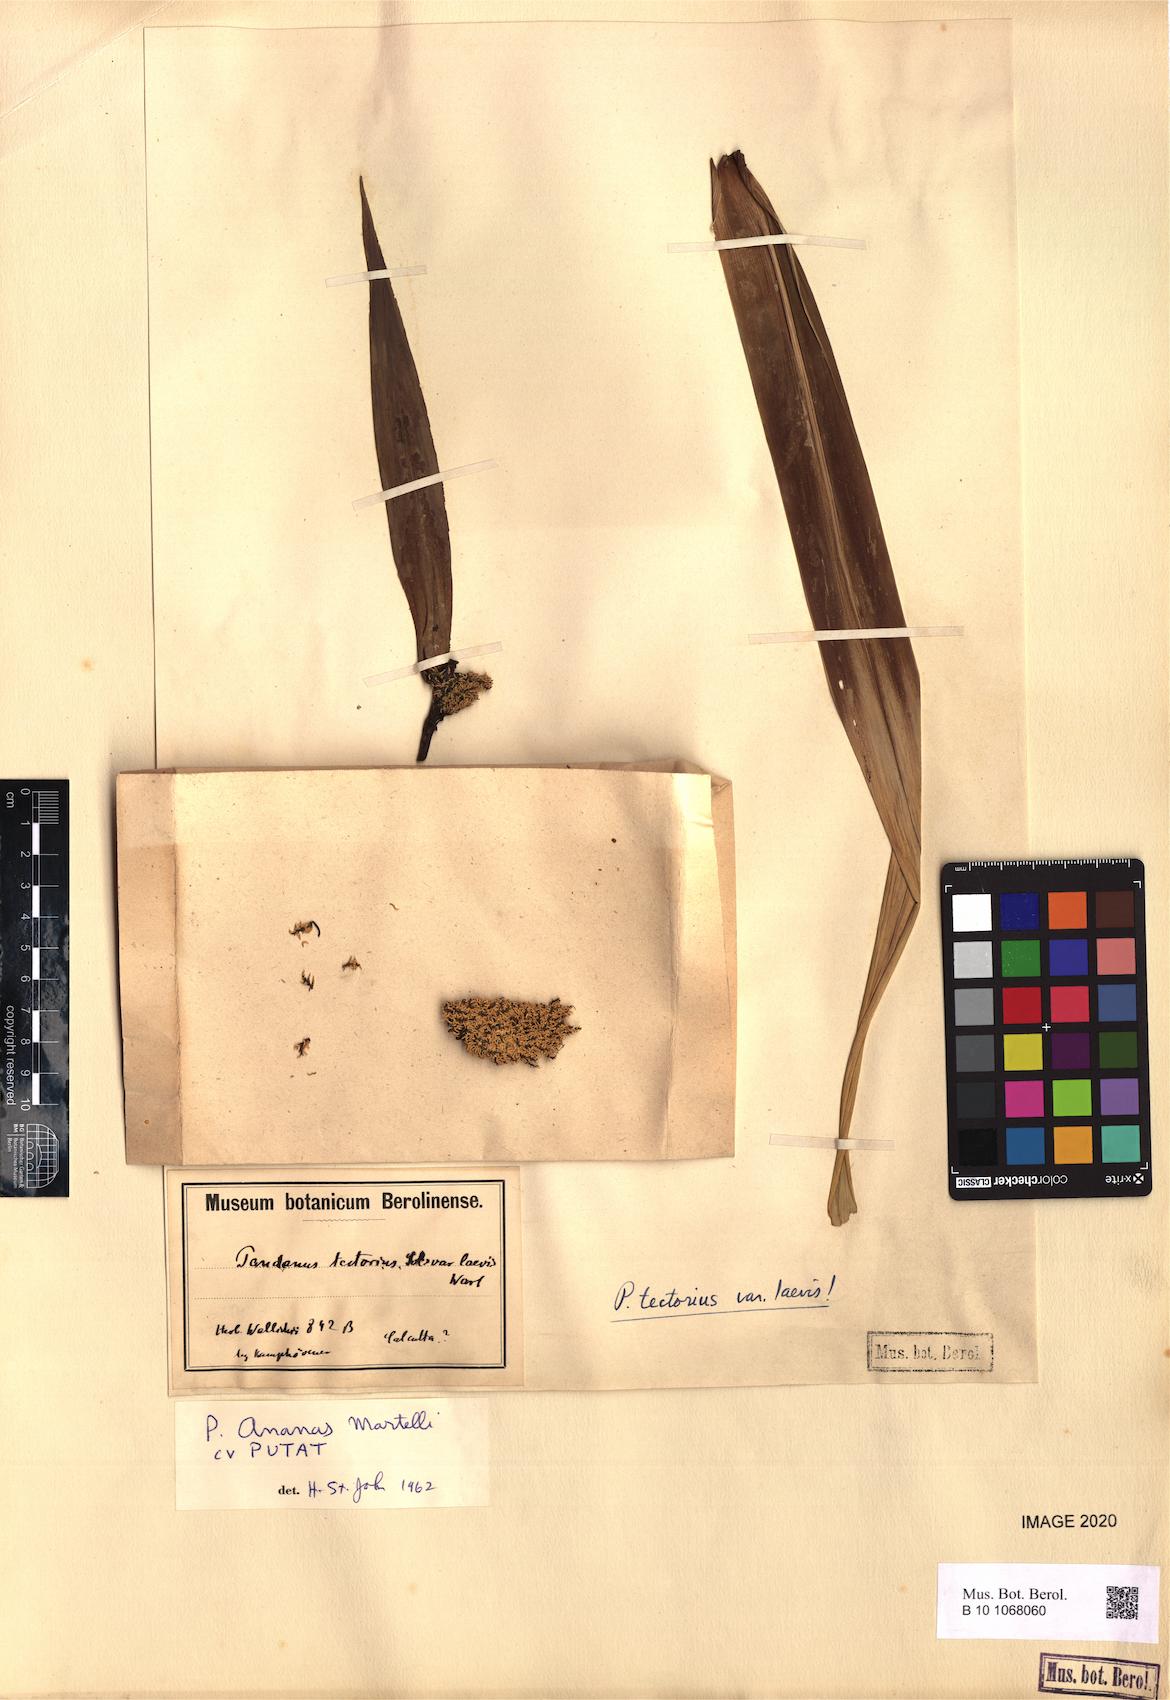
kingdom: Plantae
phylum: Tracheophyta
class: Liliopsida
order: Pandanales
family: Pandanaceae
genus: Pandanus
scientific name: Pandanus tectorius
